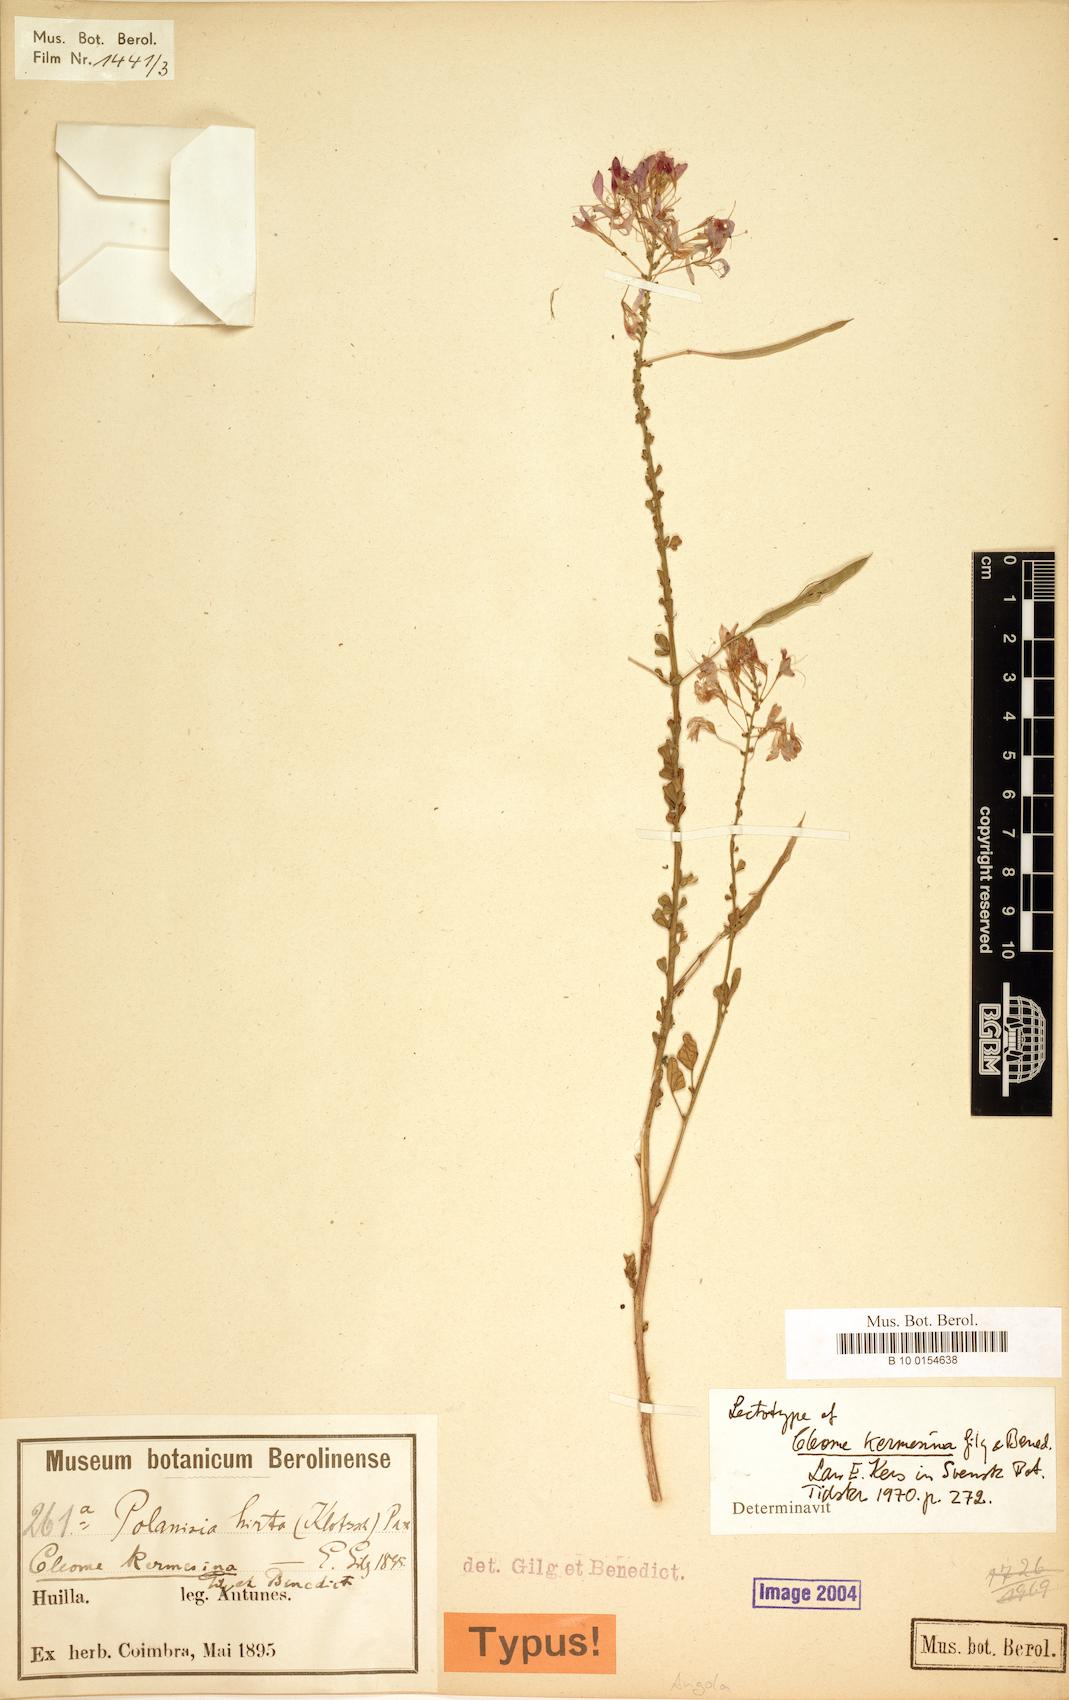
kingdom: Plantae
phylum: Tracheophyta
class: Magnoliopsida
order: Brassicales
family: Cleomaceae
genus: Sieruela
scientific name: Sieruela kermesina
